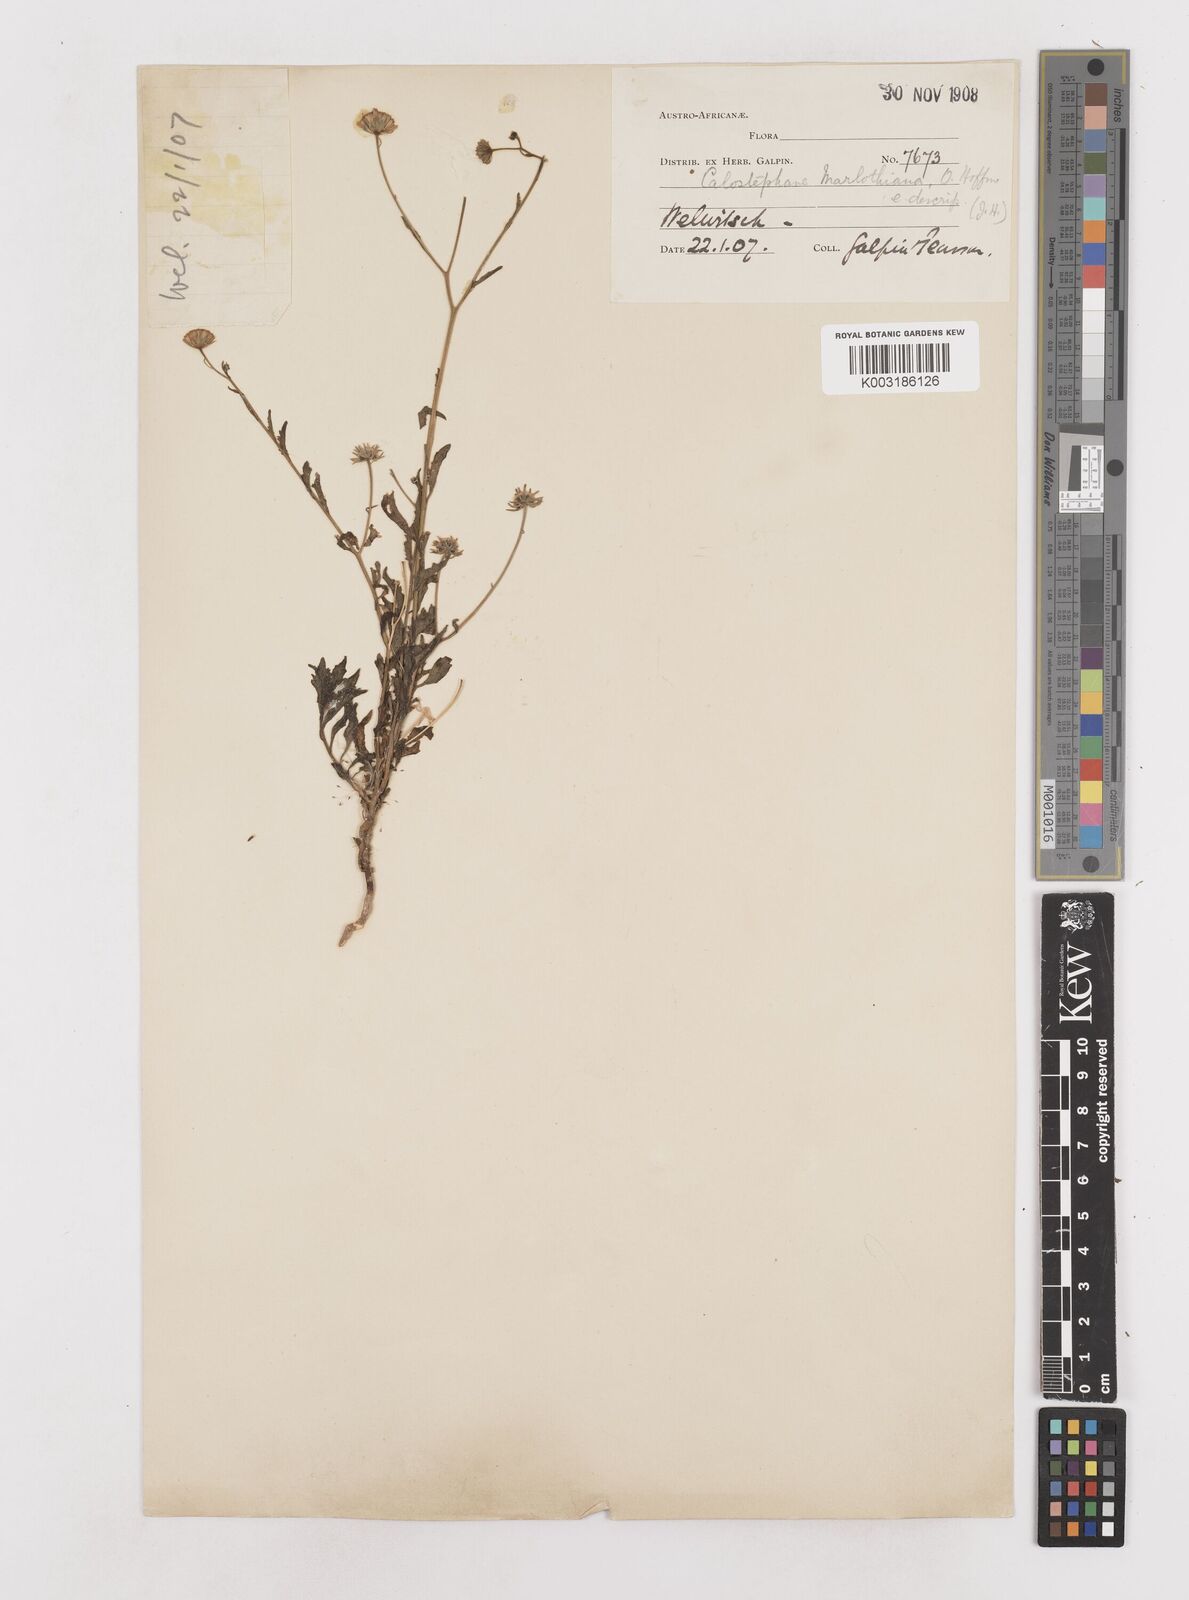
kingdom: Plantae
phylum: Tracheophyta
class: Magnoliopsida
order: Asterales
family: Asteraceae
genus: Calostephane
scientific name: Calostephane marlothiana
